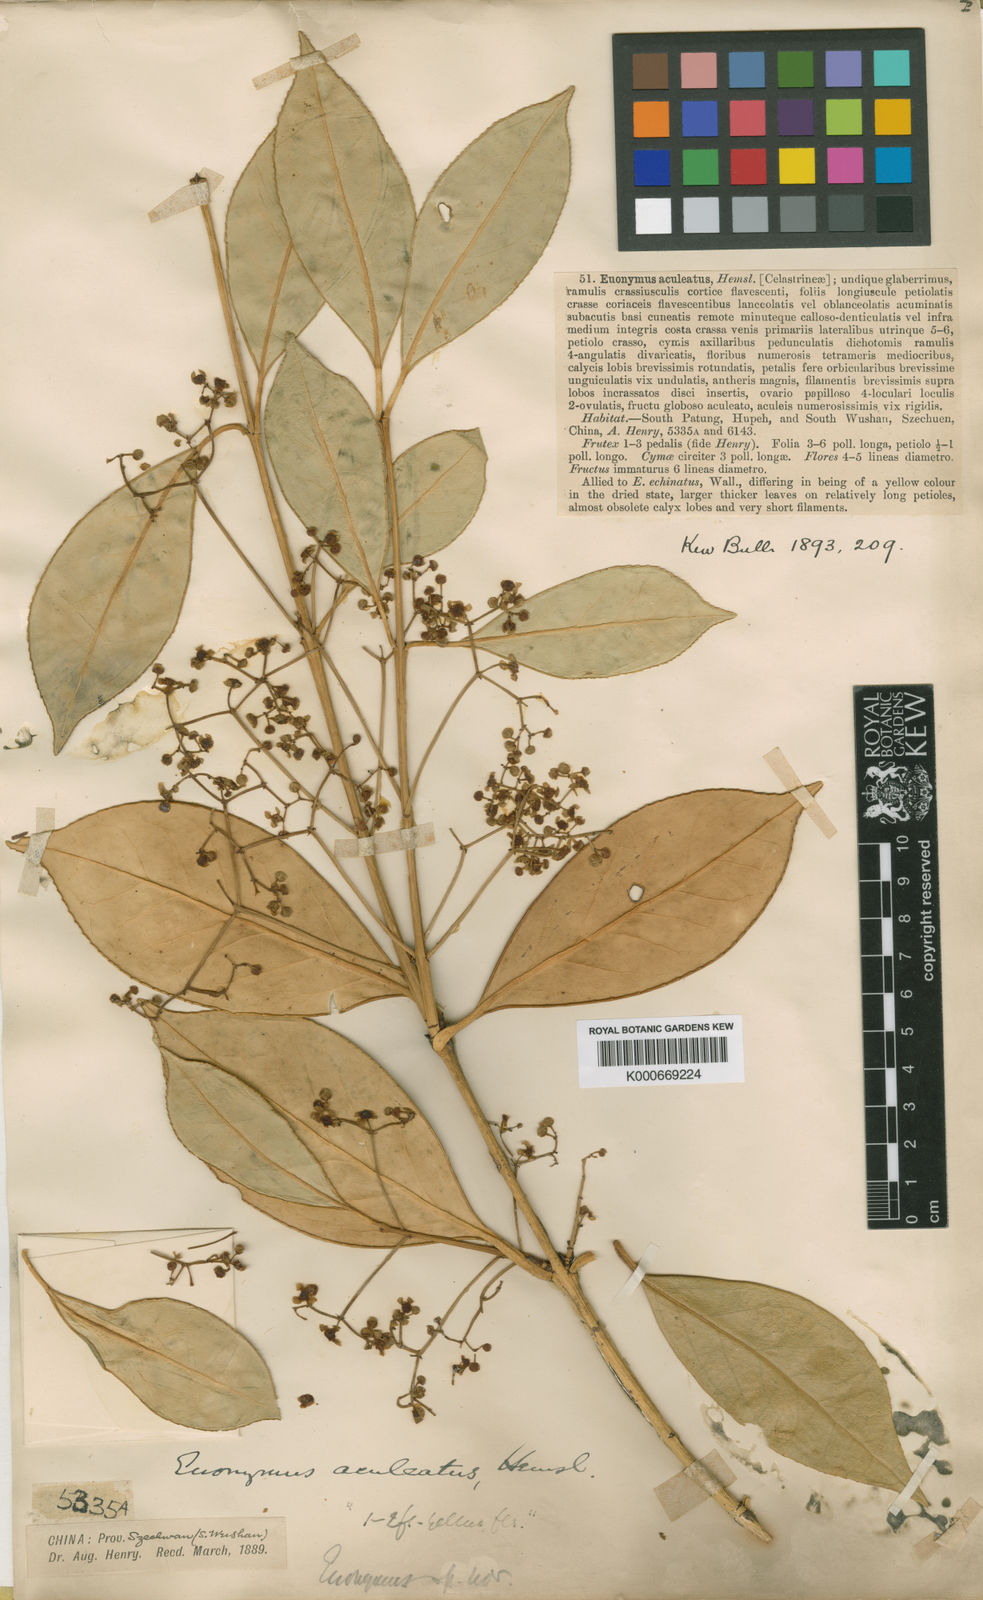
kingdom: Plantae
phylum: Tracheophyta
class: Magnoliopsida
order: Celastrales
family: Celastraceae
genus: Euonymus
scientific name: Euonymus aculeatus
